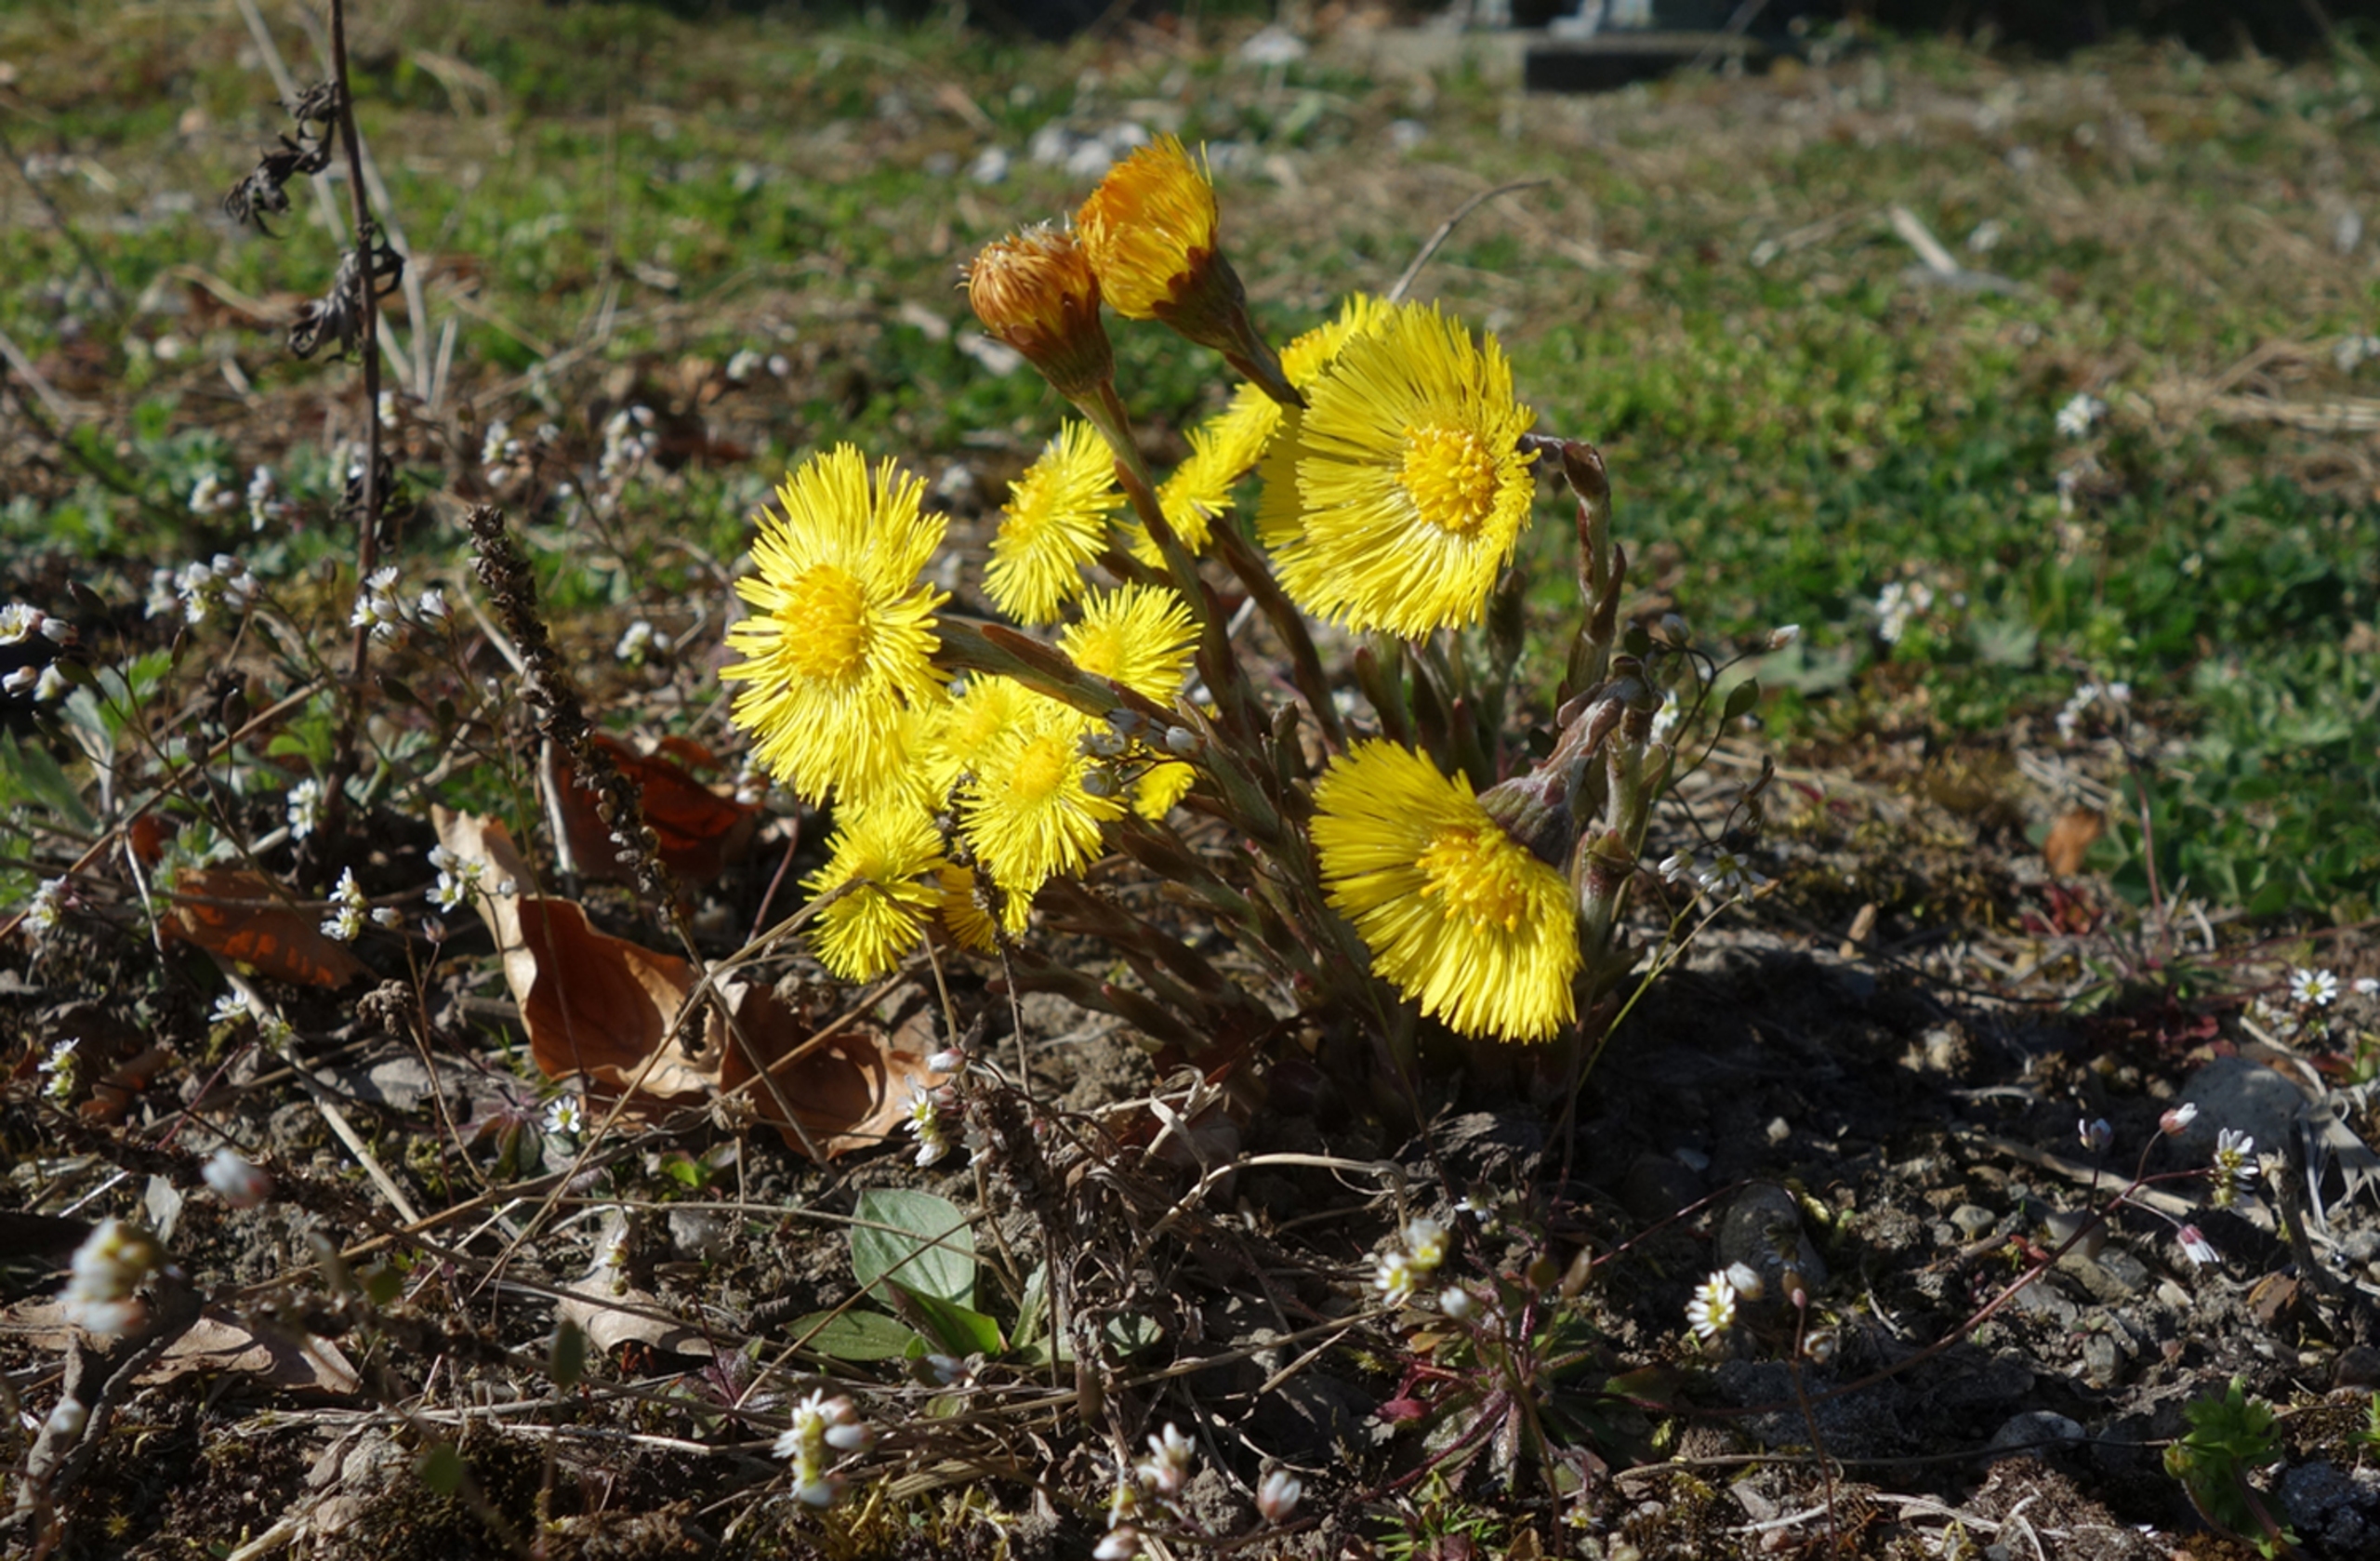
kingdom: Plantae
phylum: Tracheophyta
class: Magnoliopsida
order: Asterales
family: Asteraceae
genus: Tussilago
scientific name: Tussilago farfara
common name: Følfod
